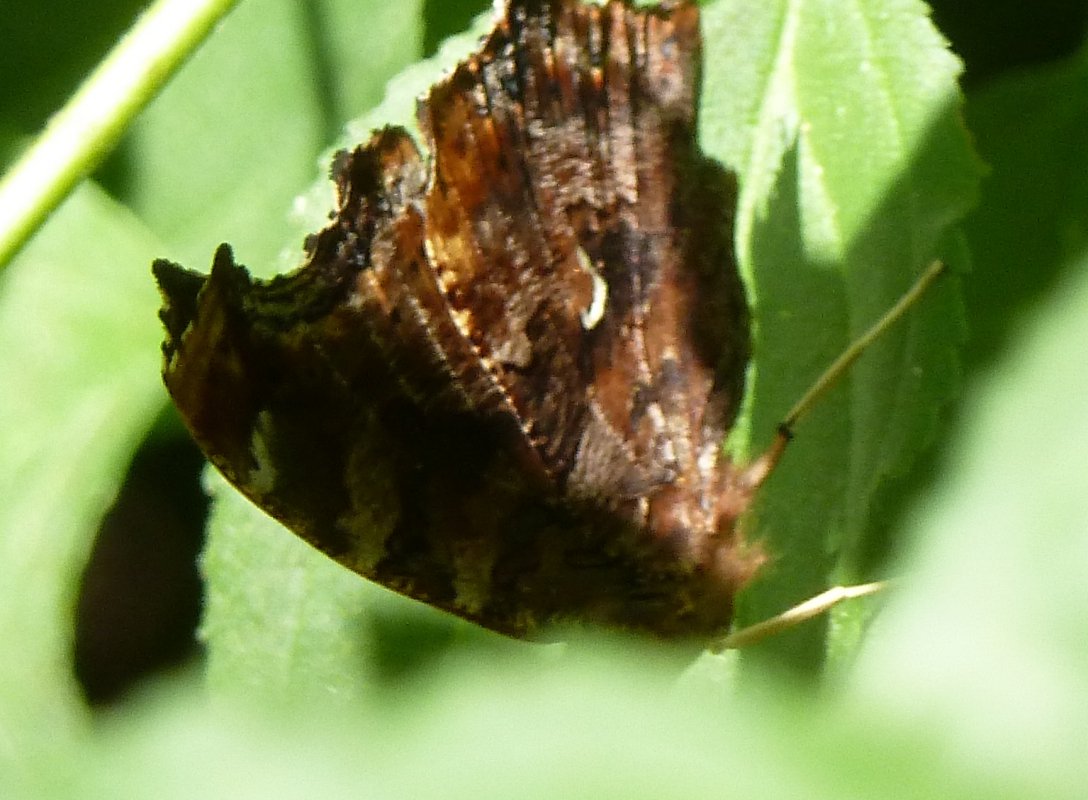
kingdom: Animalia
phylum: Arthropoda
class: Insecta
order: Lepidoptera
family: Nymphalidae
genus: Polygonia
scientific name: Polygonia comma
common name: Eastern Comma
